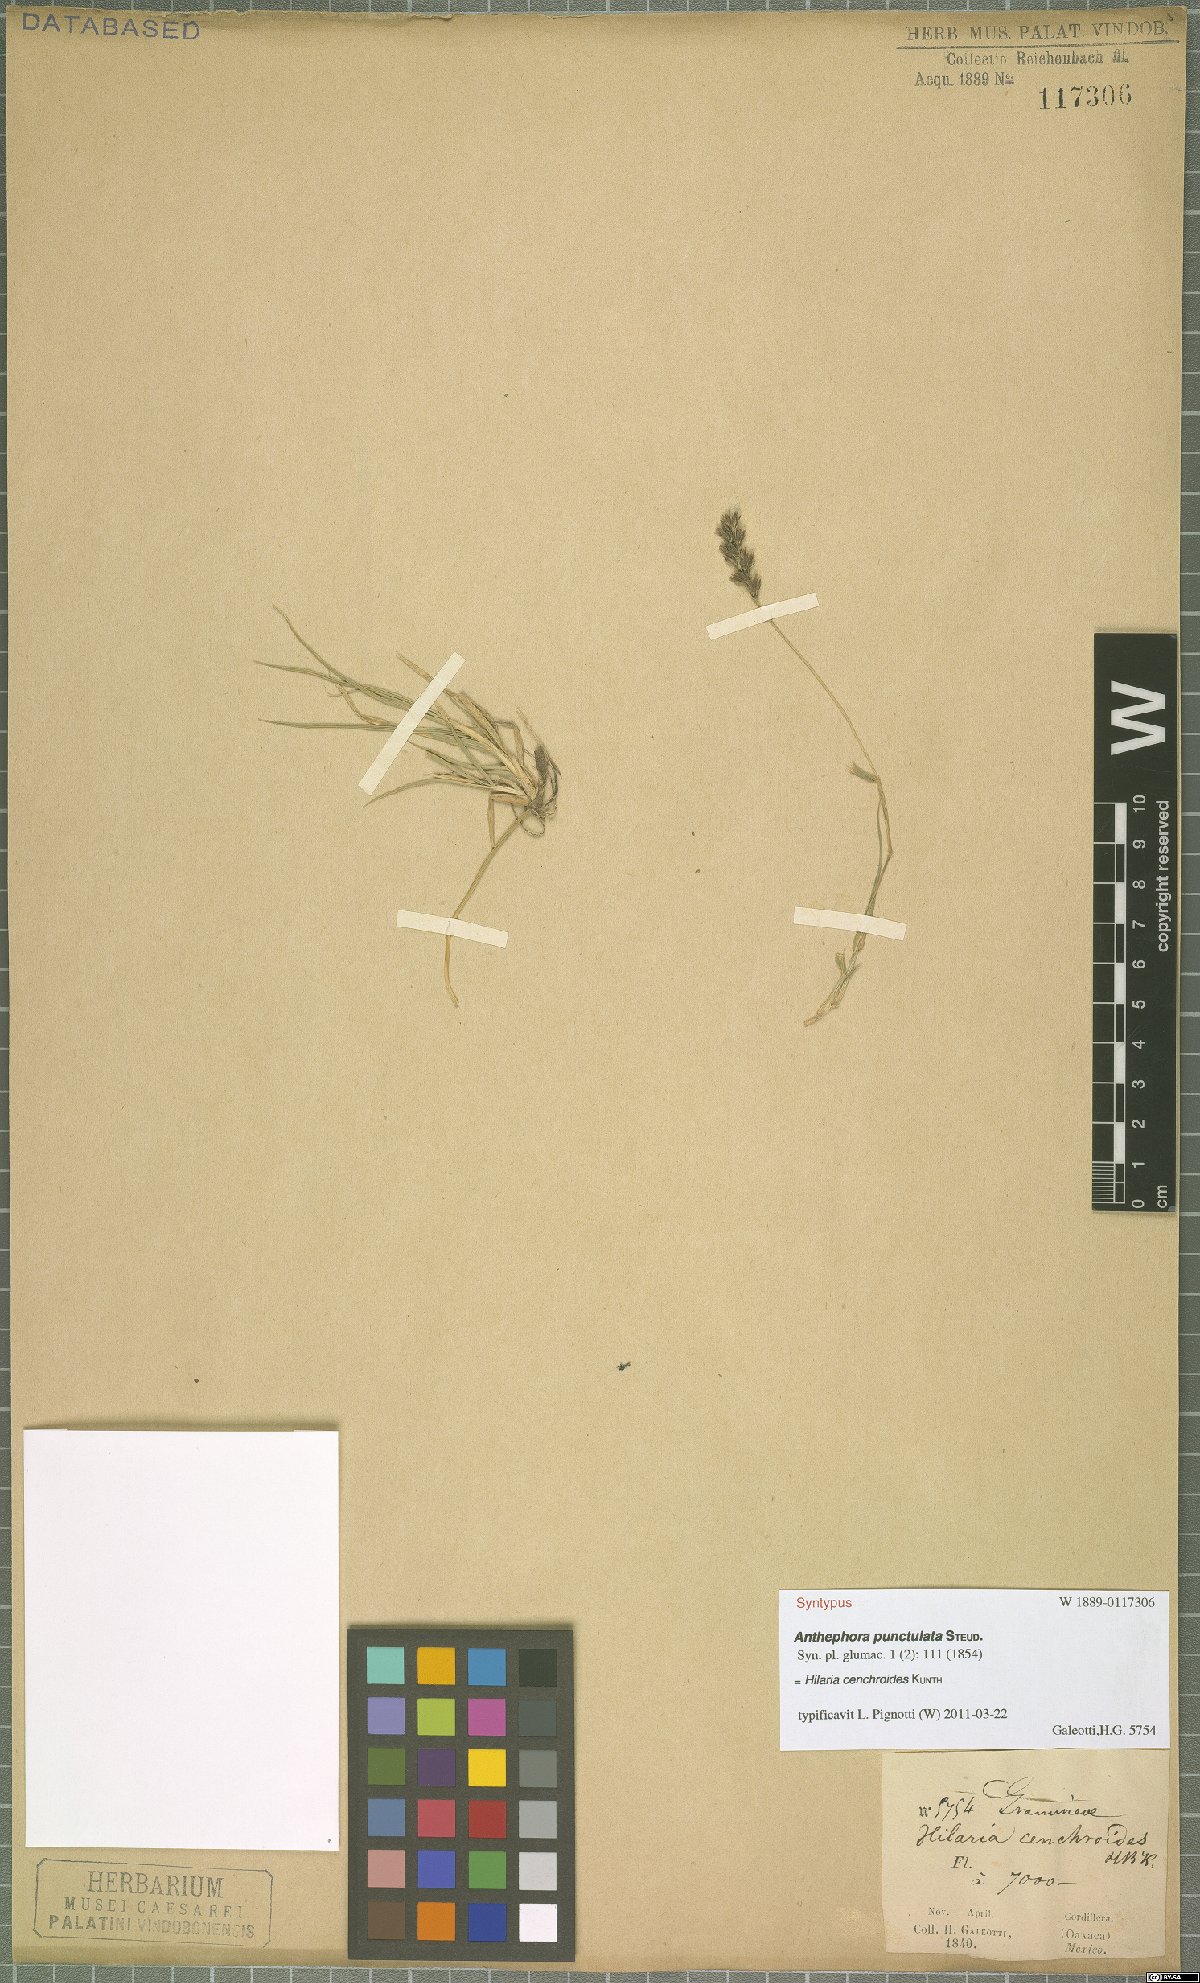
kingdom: Plantae
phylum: Tracheophyta
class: Liliopsida
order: Poales
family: Poaceae
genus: Hilaria
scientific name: Hilaria cenchroides
